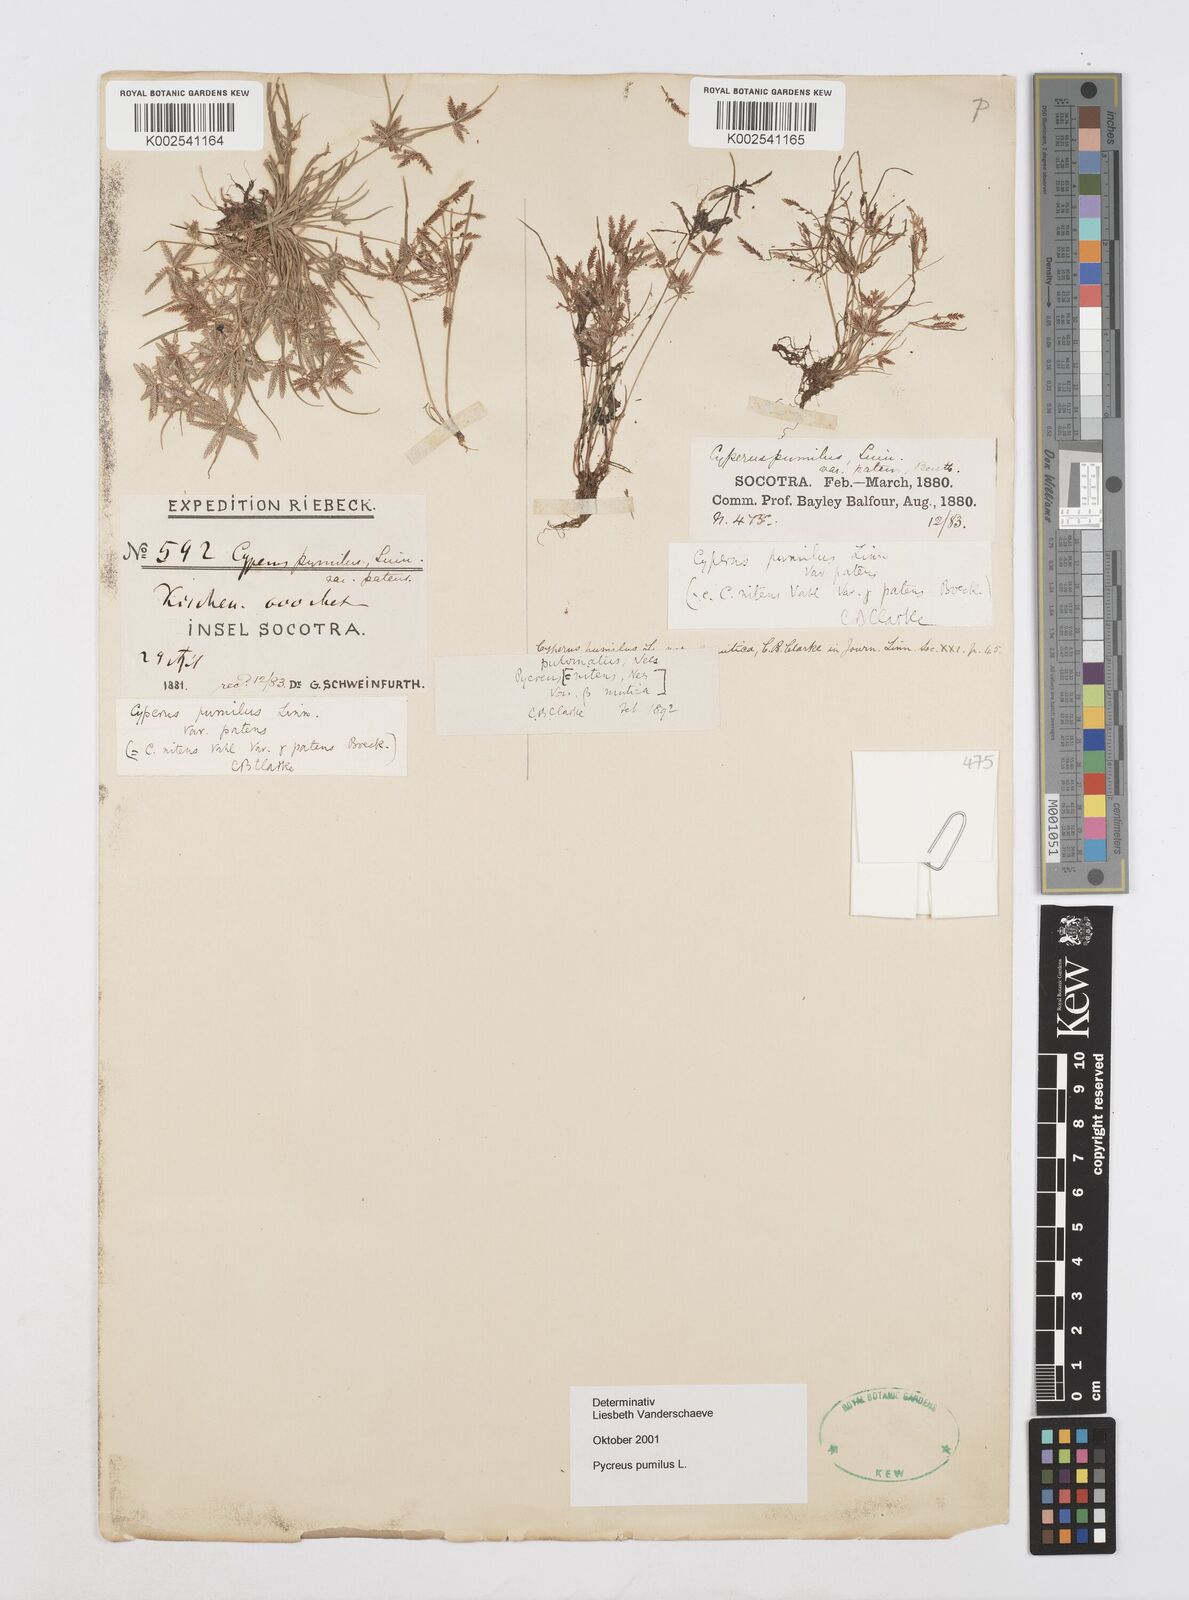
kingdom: Plantae
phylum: Tracheophyta
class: Liliopsida
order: Poales
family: Cyperaceae
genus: Cyperus
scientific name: Cyperus pumilus
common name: Low flatsedge
